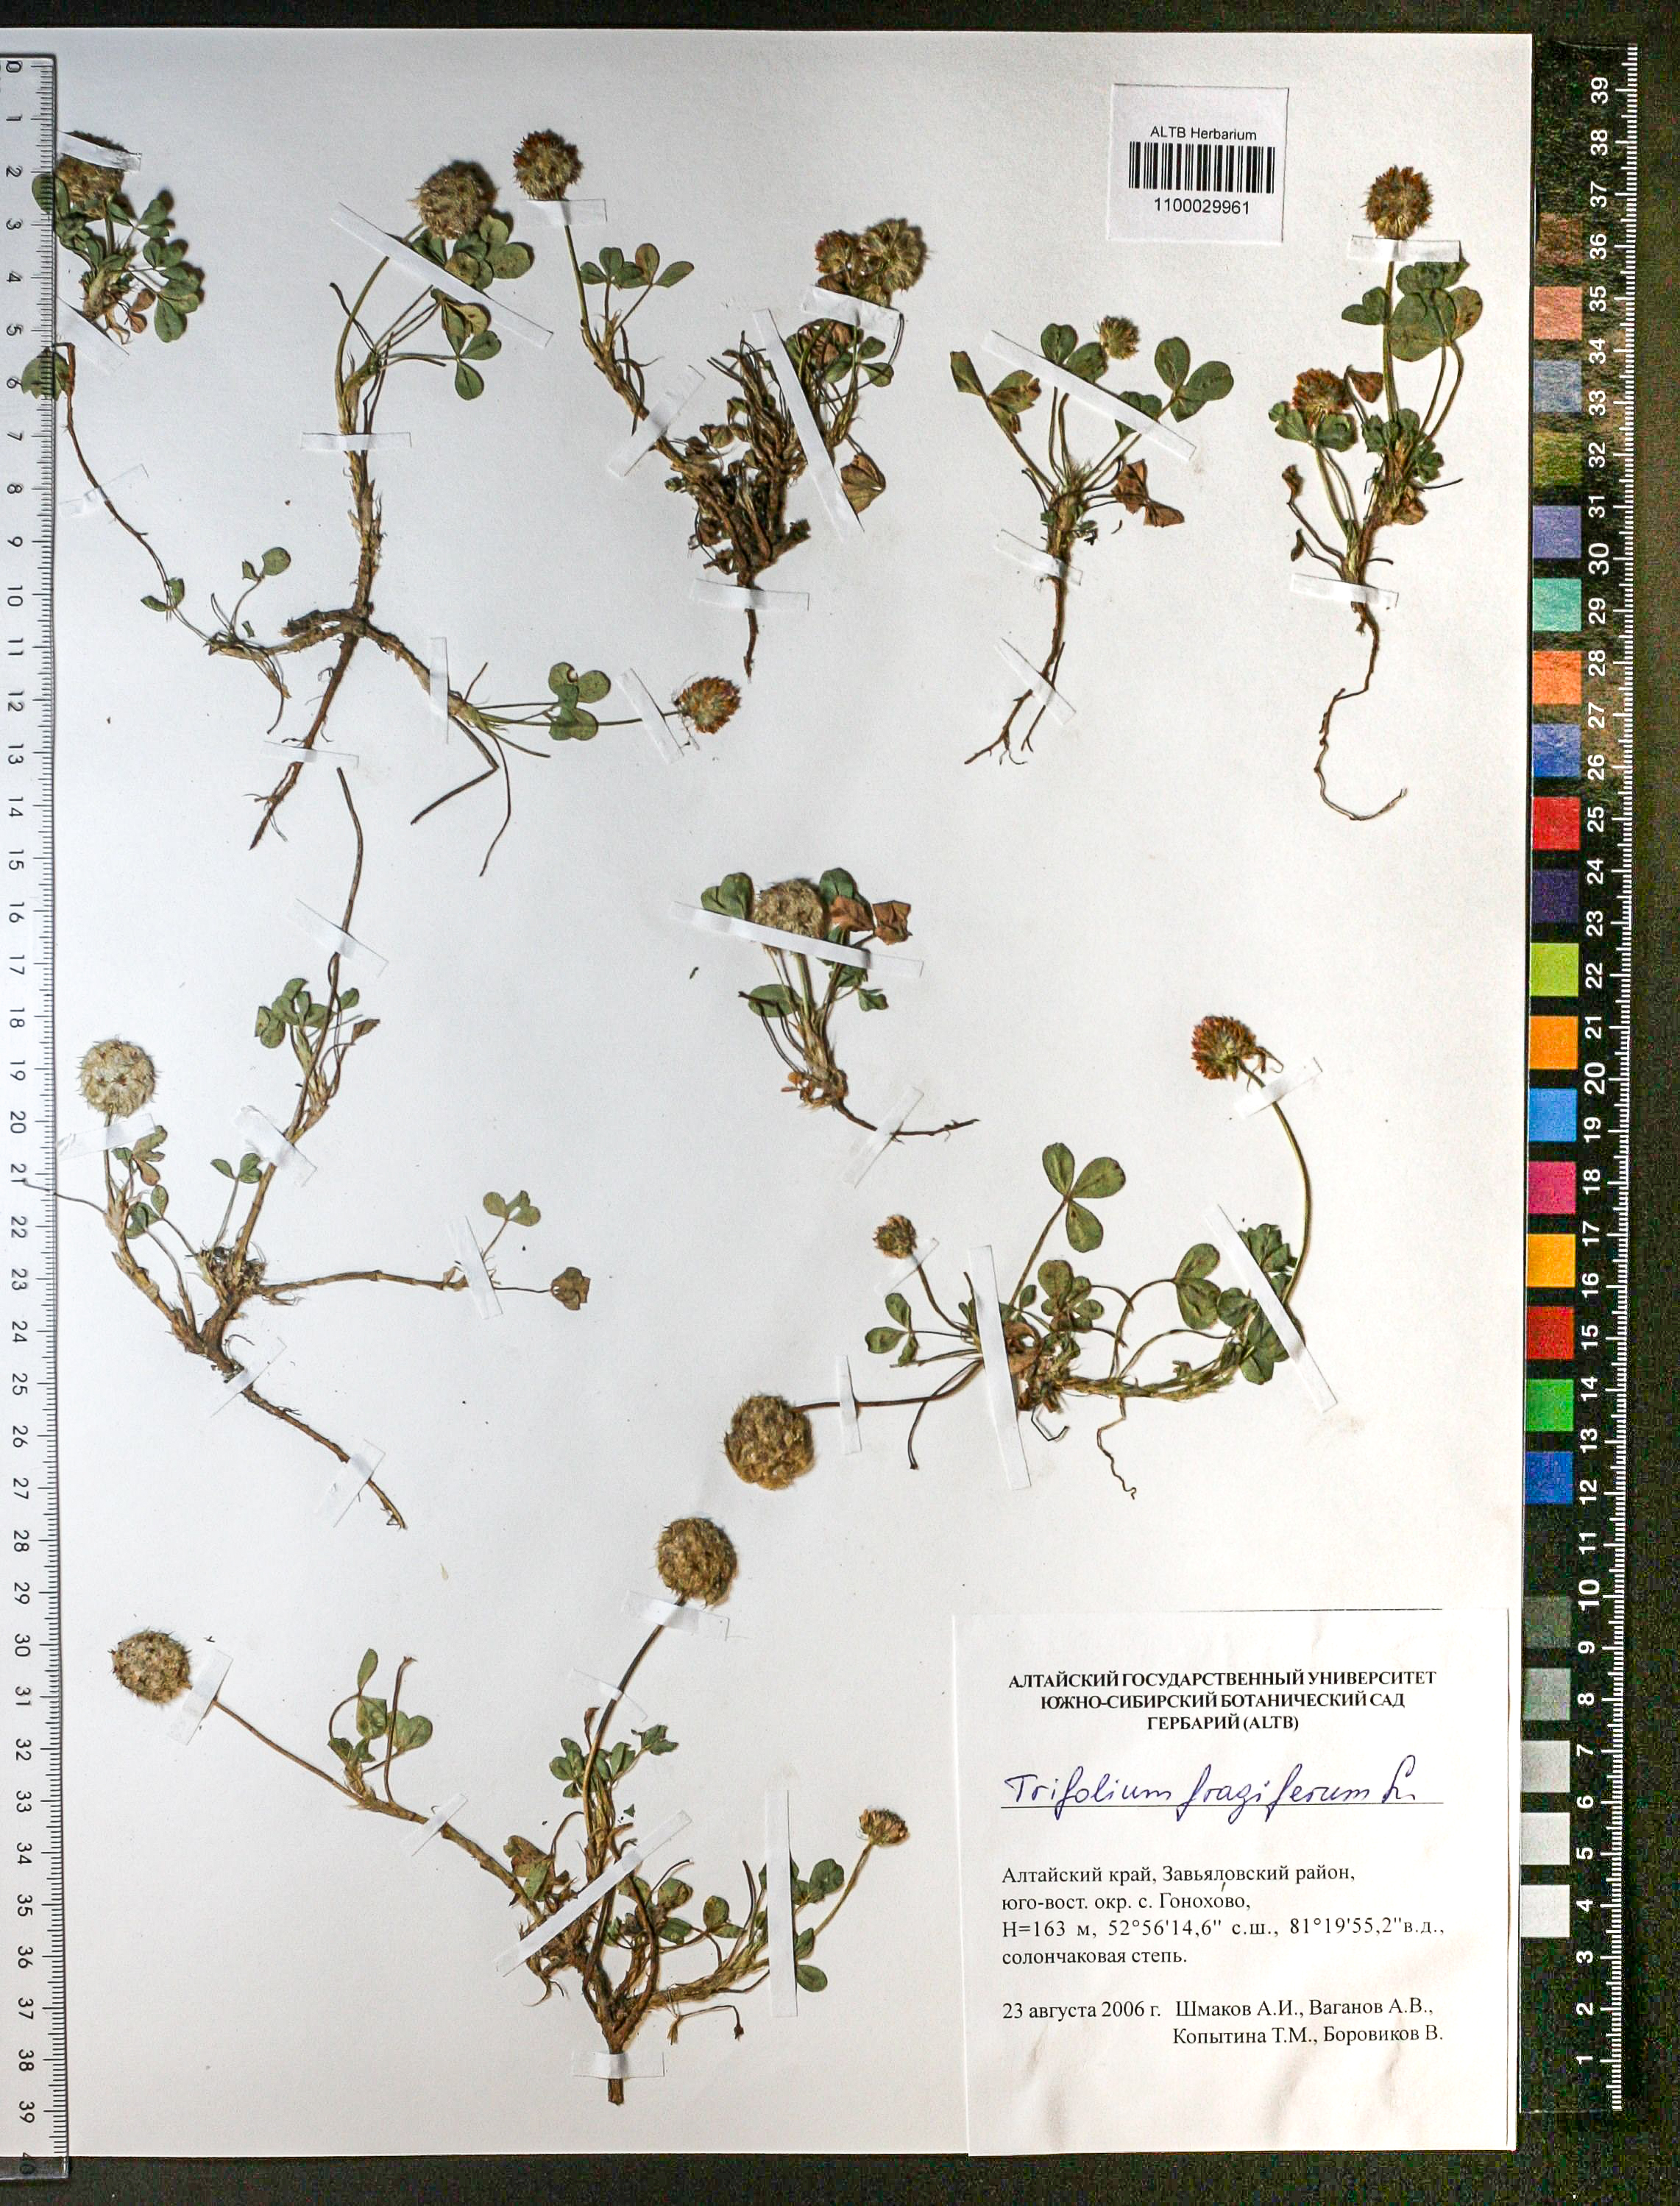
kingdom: Plantae
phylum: Tracheophyta
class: Magnoliopsida
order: Fabales
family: Fabaceae
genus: Trifolium
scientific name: Trifolium fragiferum
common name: Strawberry clover
